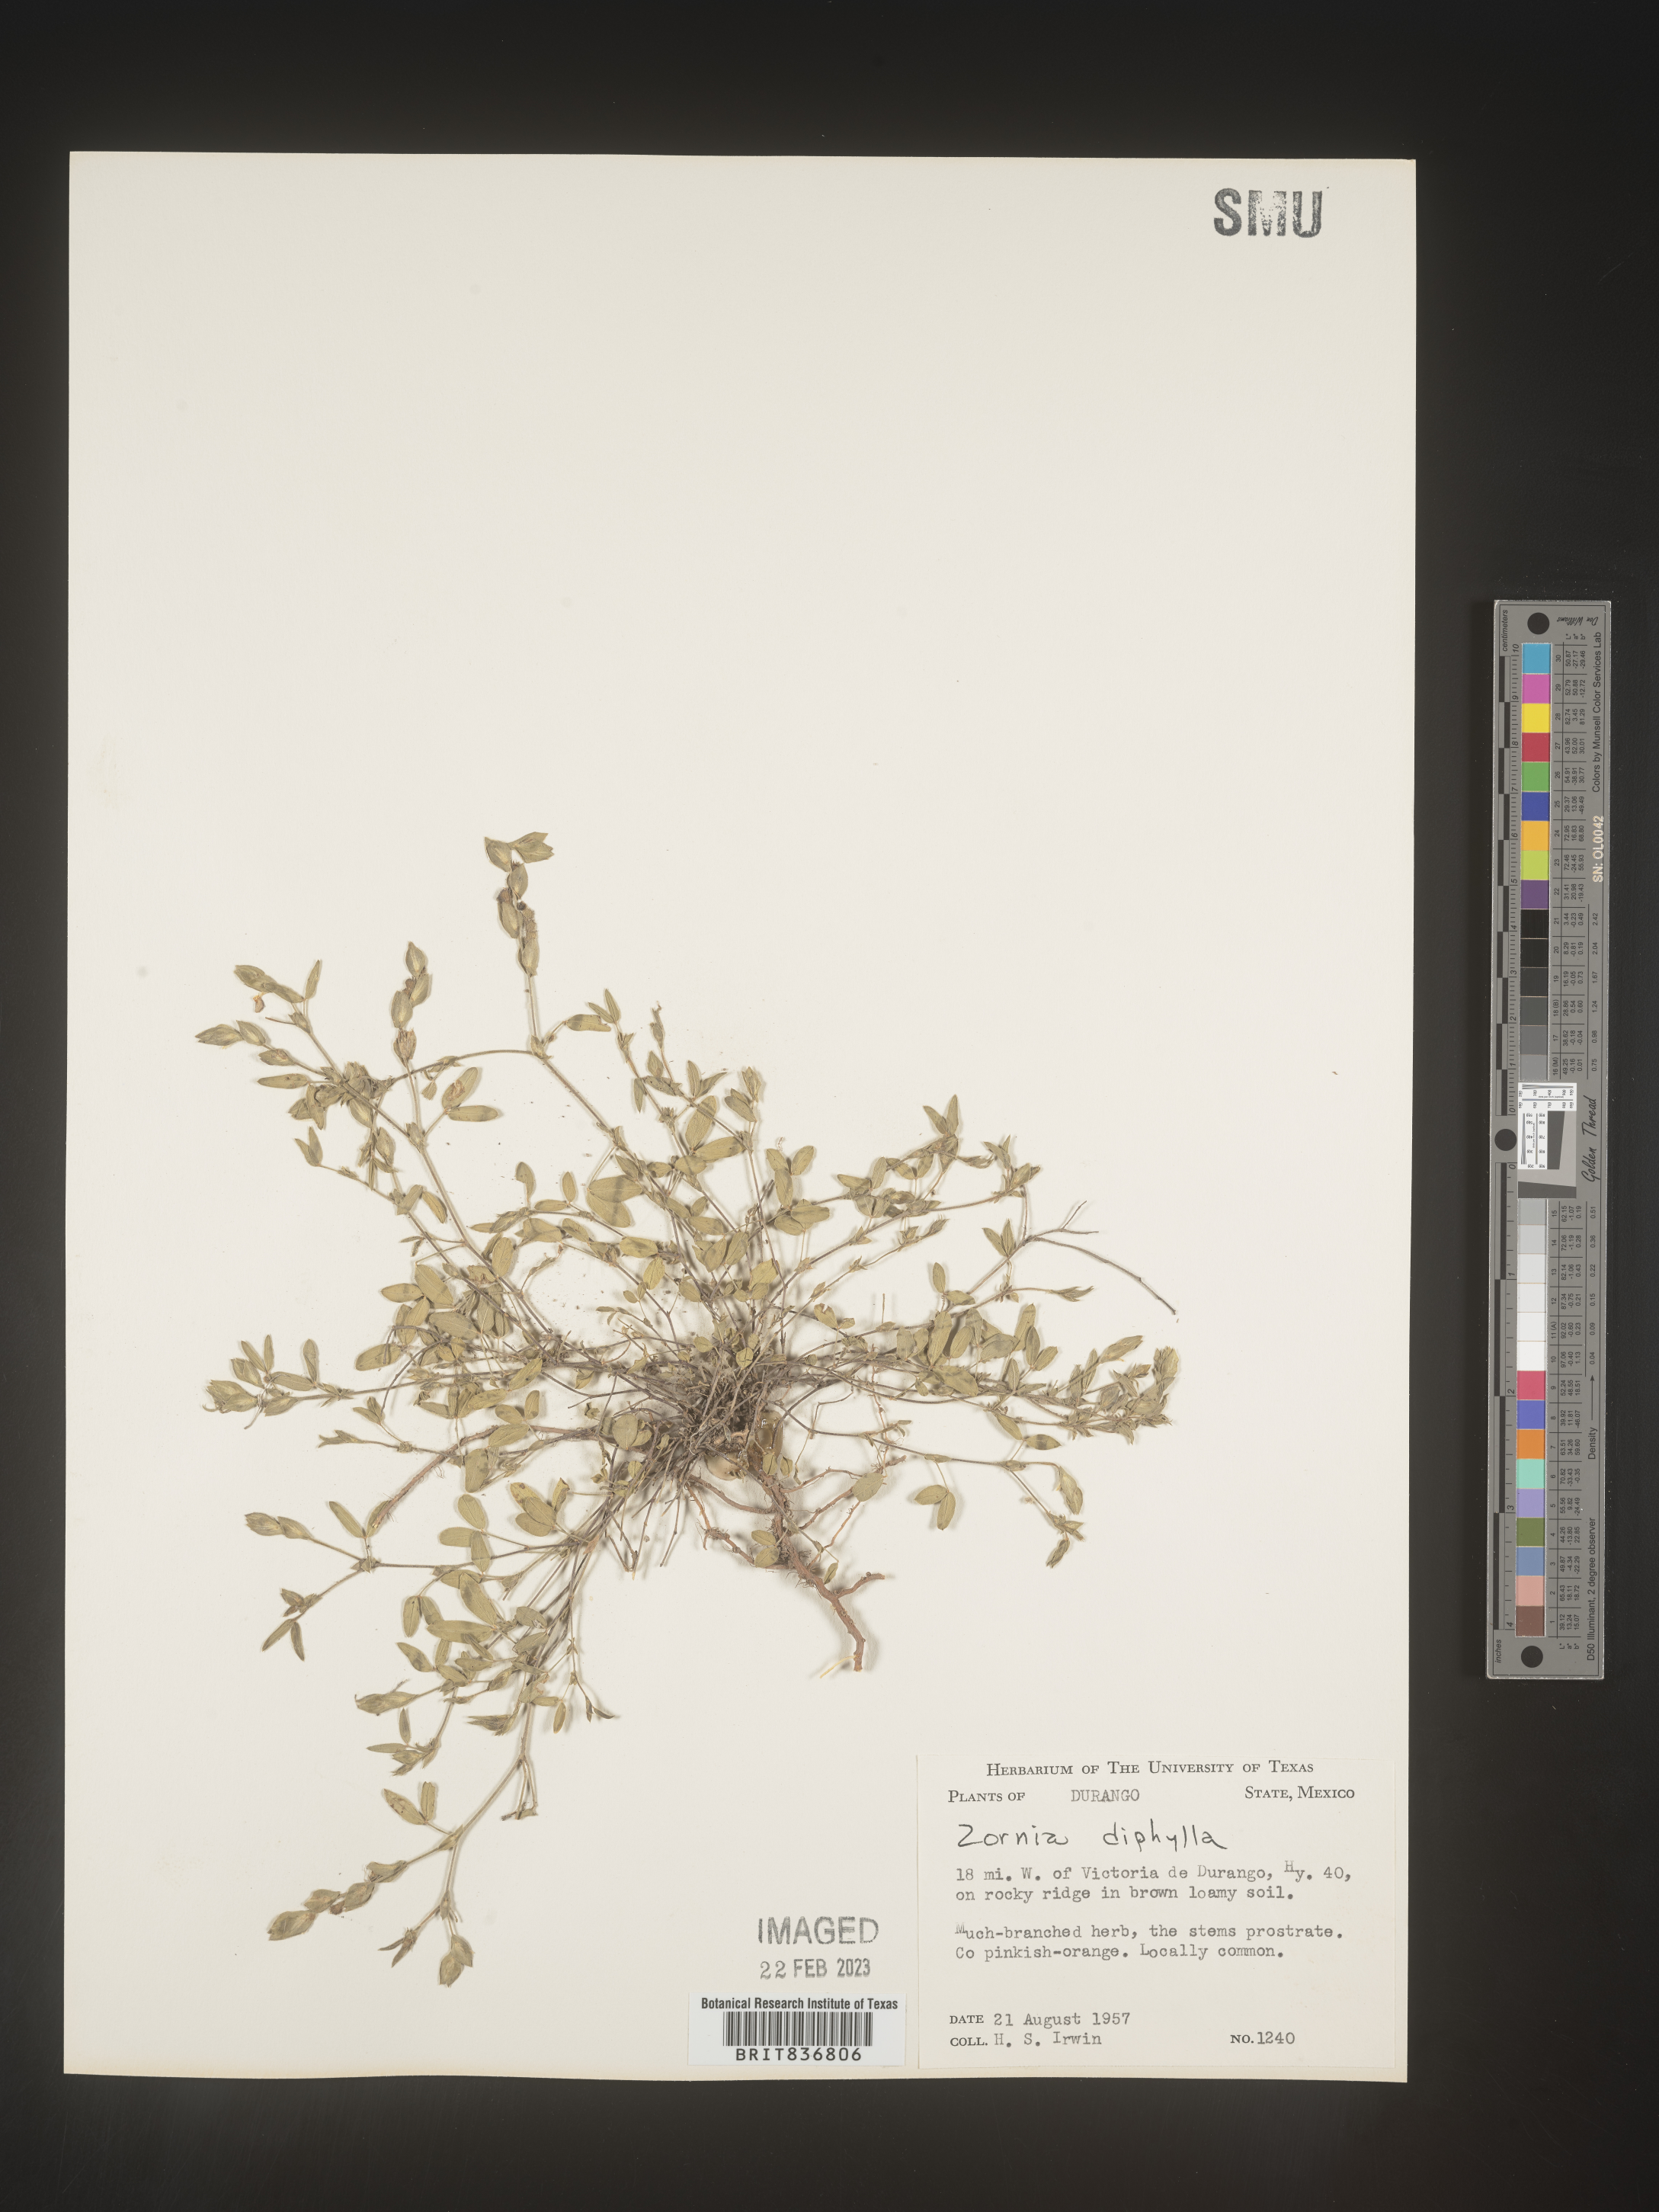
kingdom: Plantae
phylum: Tracheophyta
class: Magnoliopsida
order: Fabales
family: Fabaceae
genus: Zornia
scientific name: Zornia
